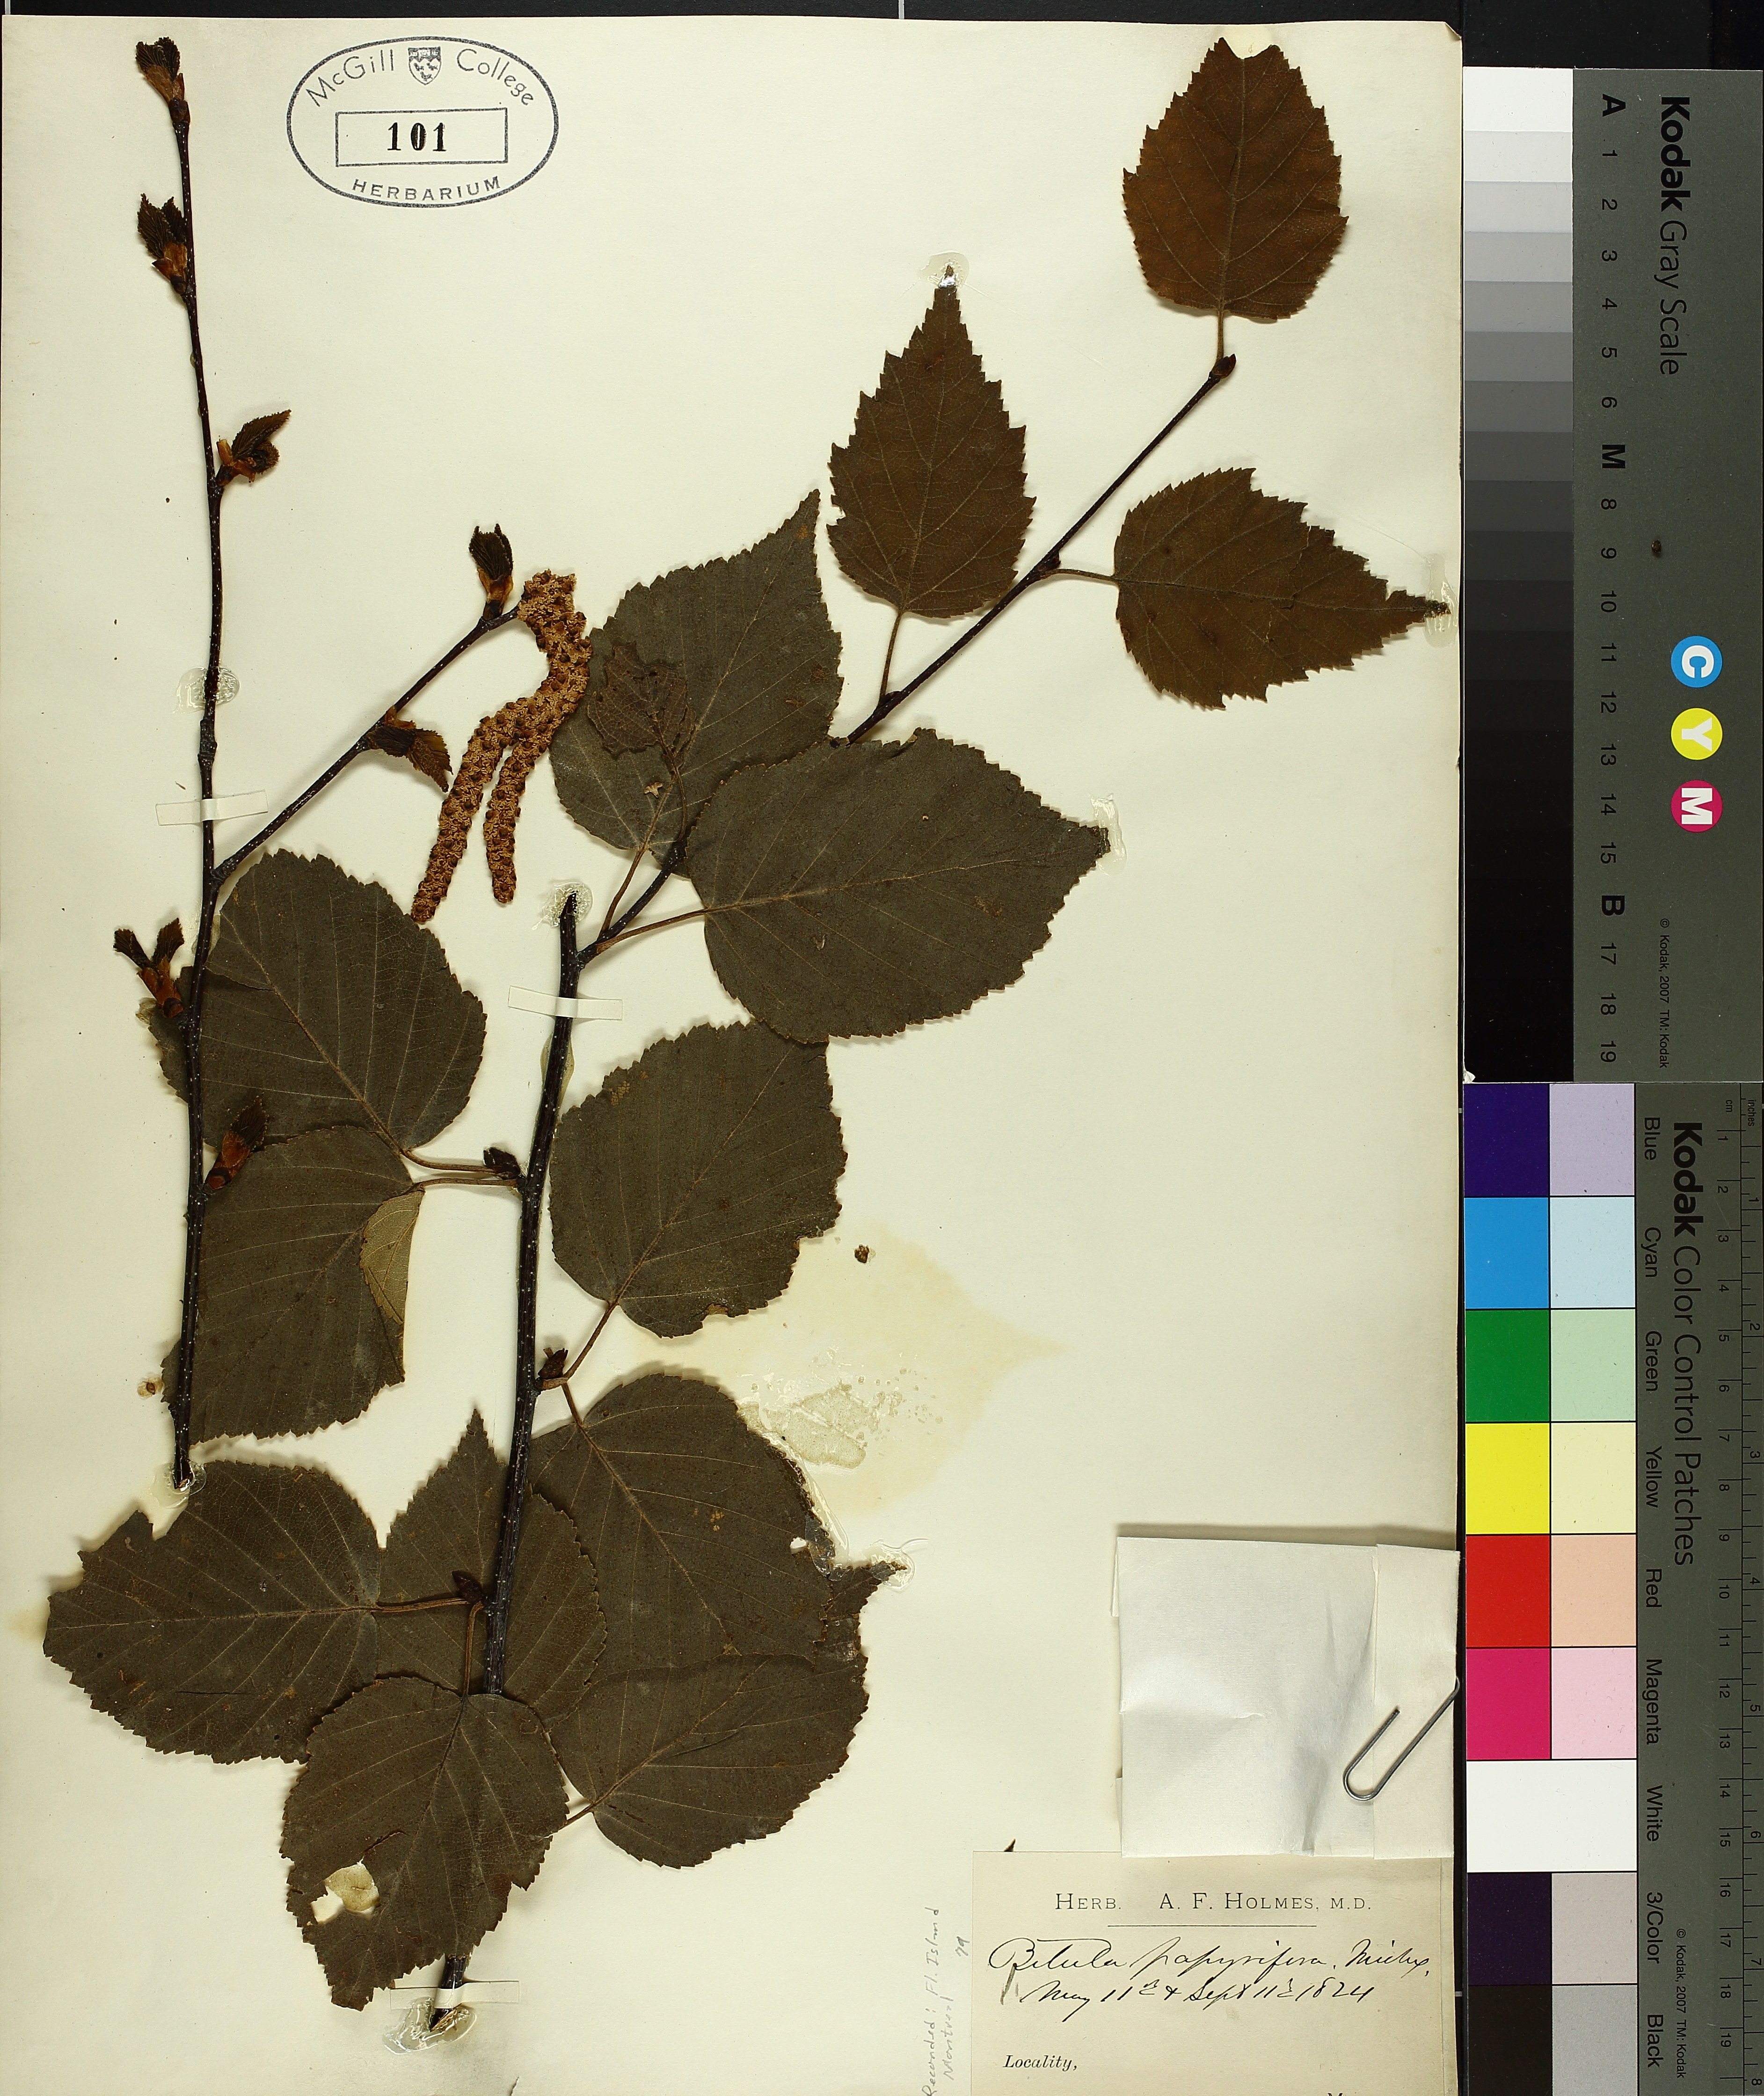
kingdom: Plantae
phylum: Tracheophyta
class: Magnoliopsida
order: Fagales
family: Betulaceae
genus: Betula
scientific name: Betula papyrifera
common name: Paper birch
